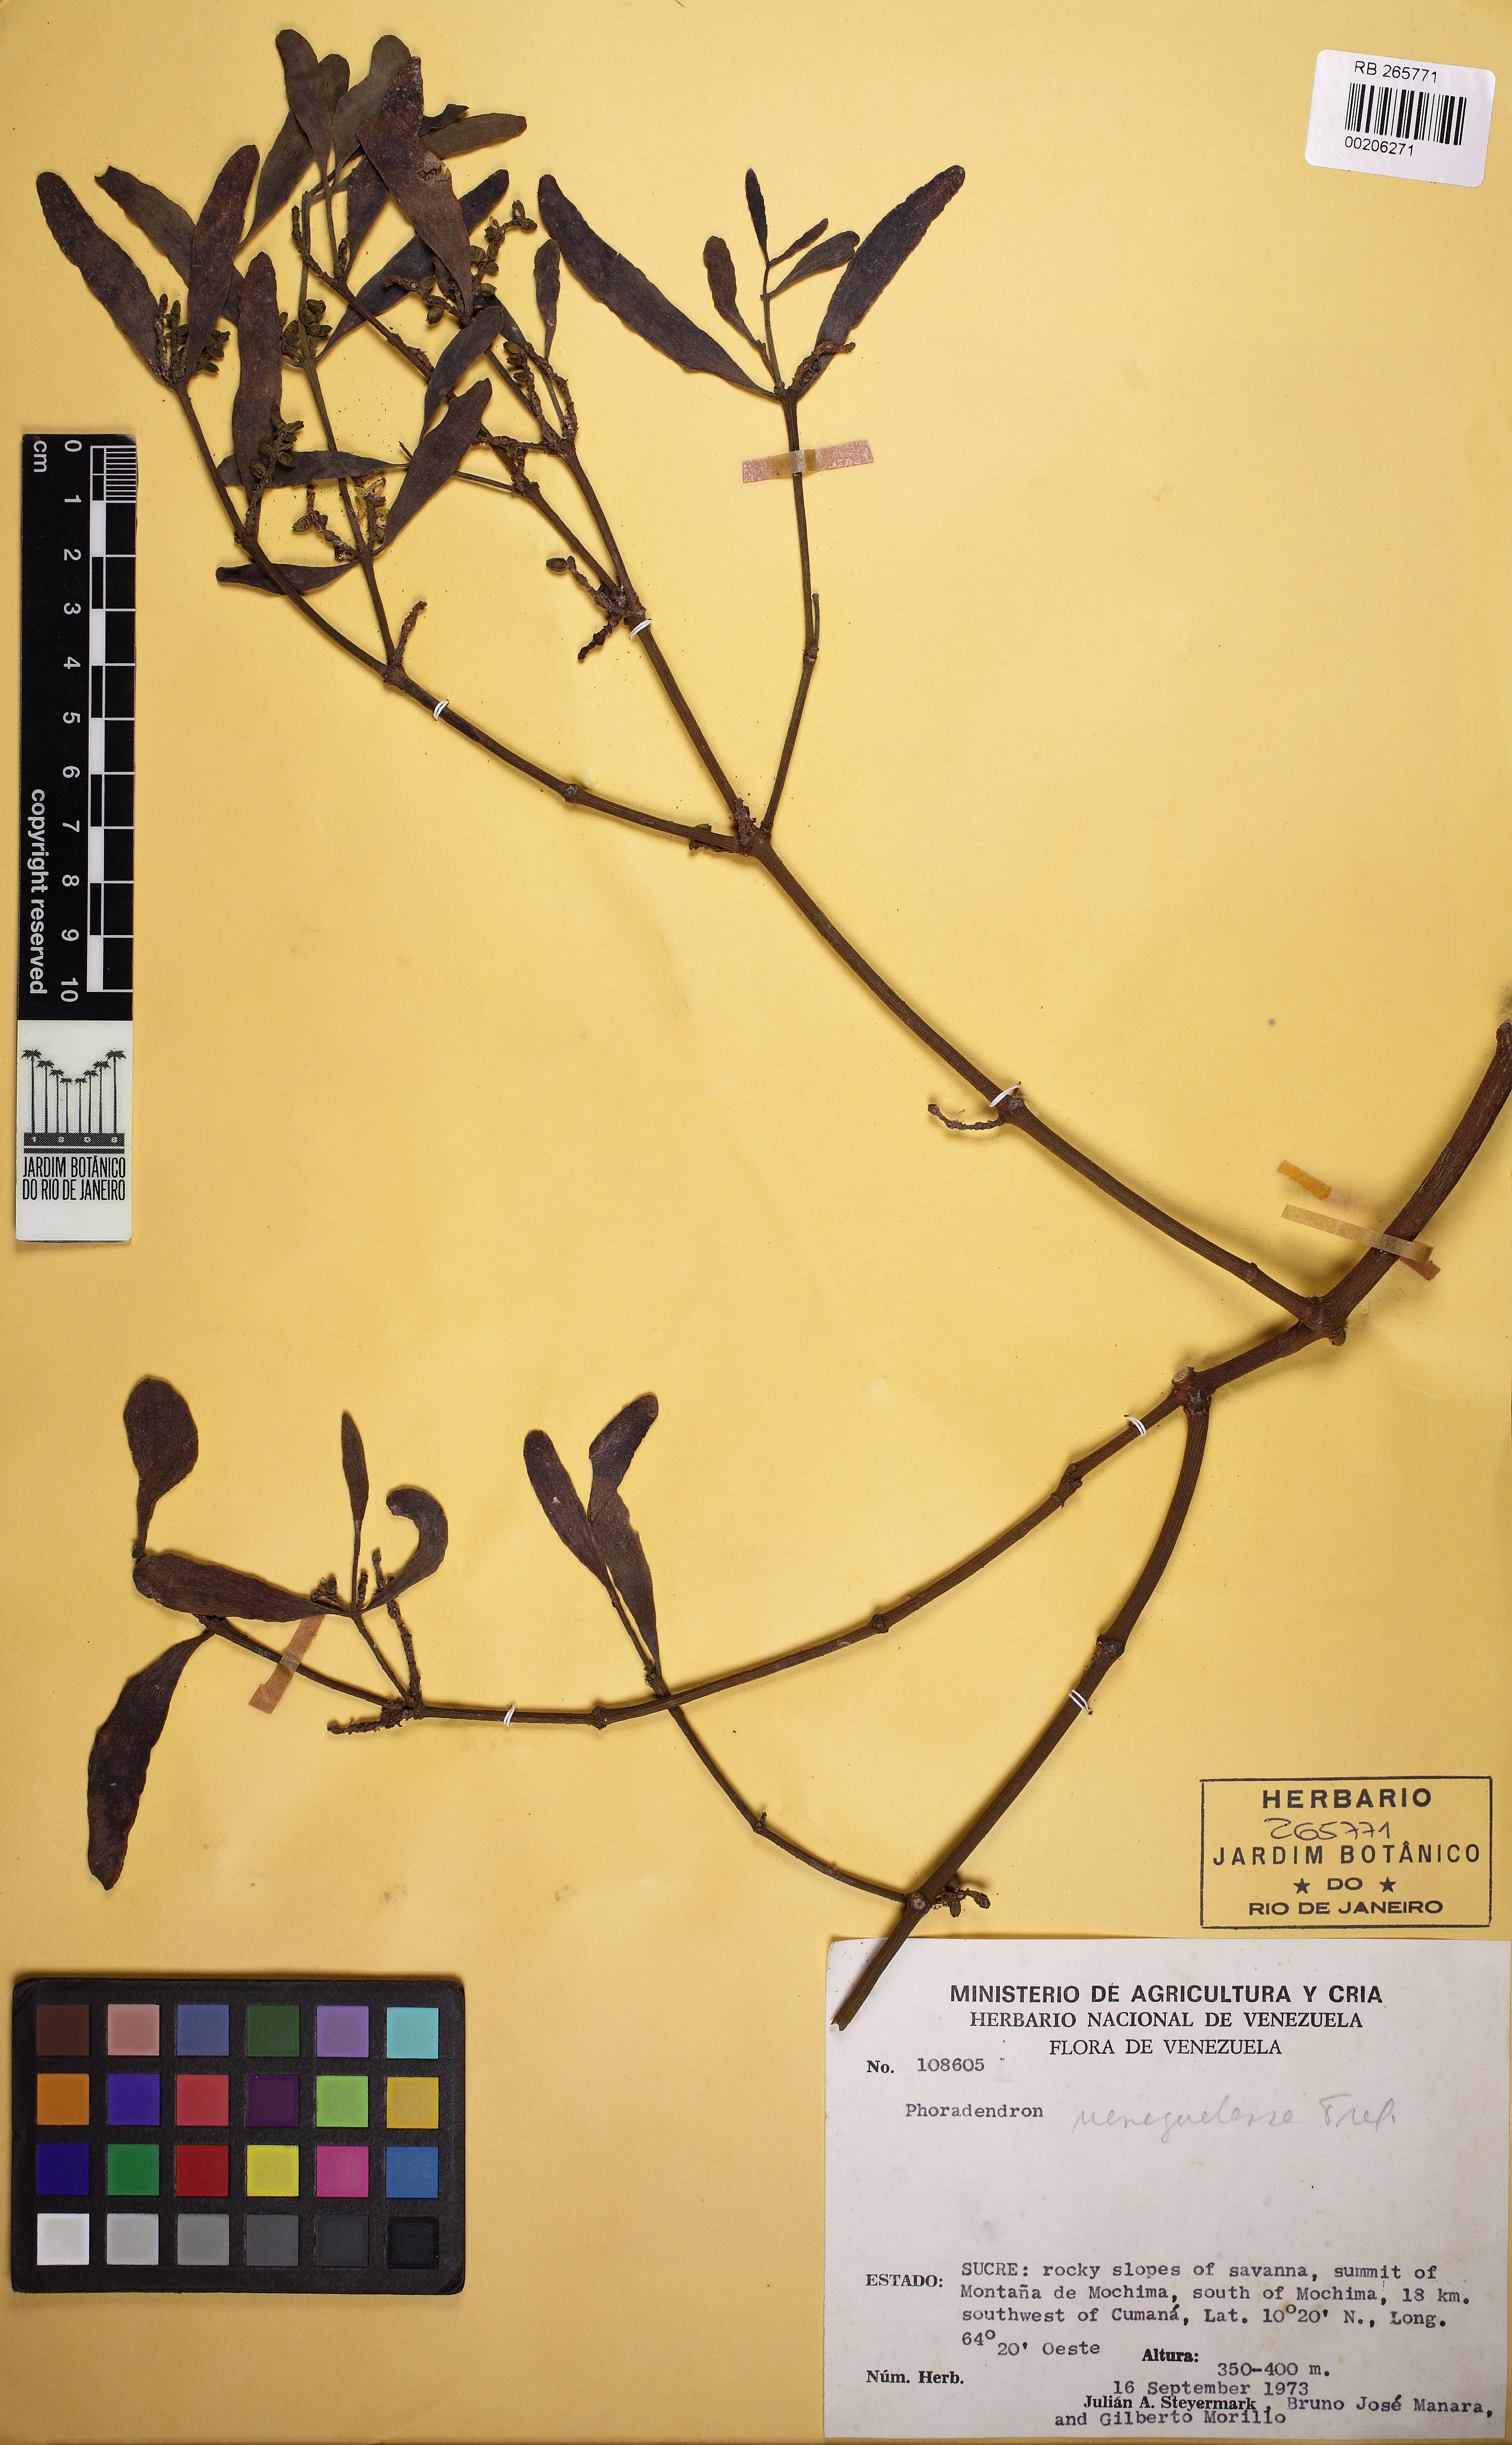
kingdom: Plantae
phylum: Tracheophyta
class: Magnoliopsida
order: Santalales
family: Viscaceae
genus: Phoradendron
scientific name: Phoradendron quadrangulare
